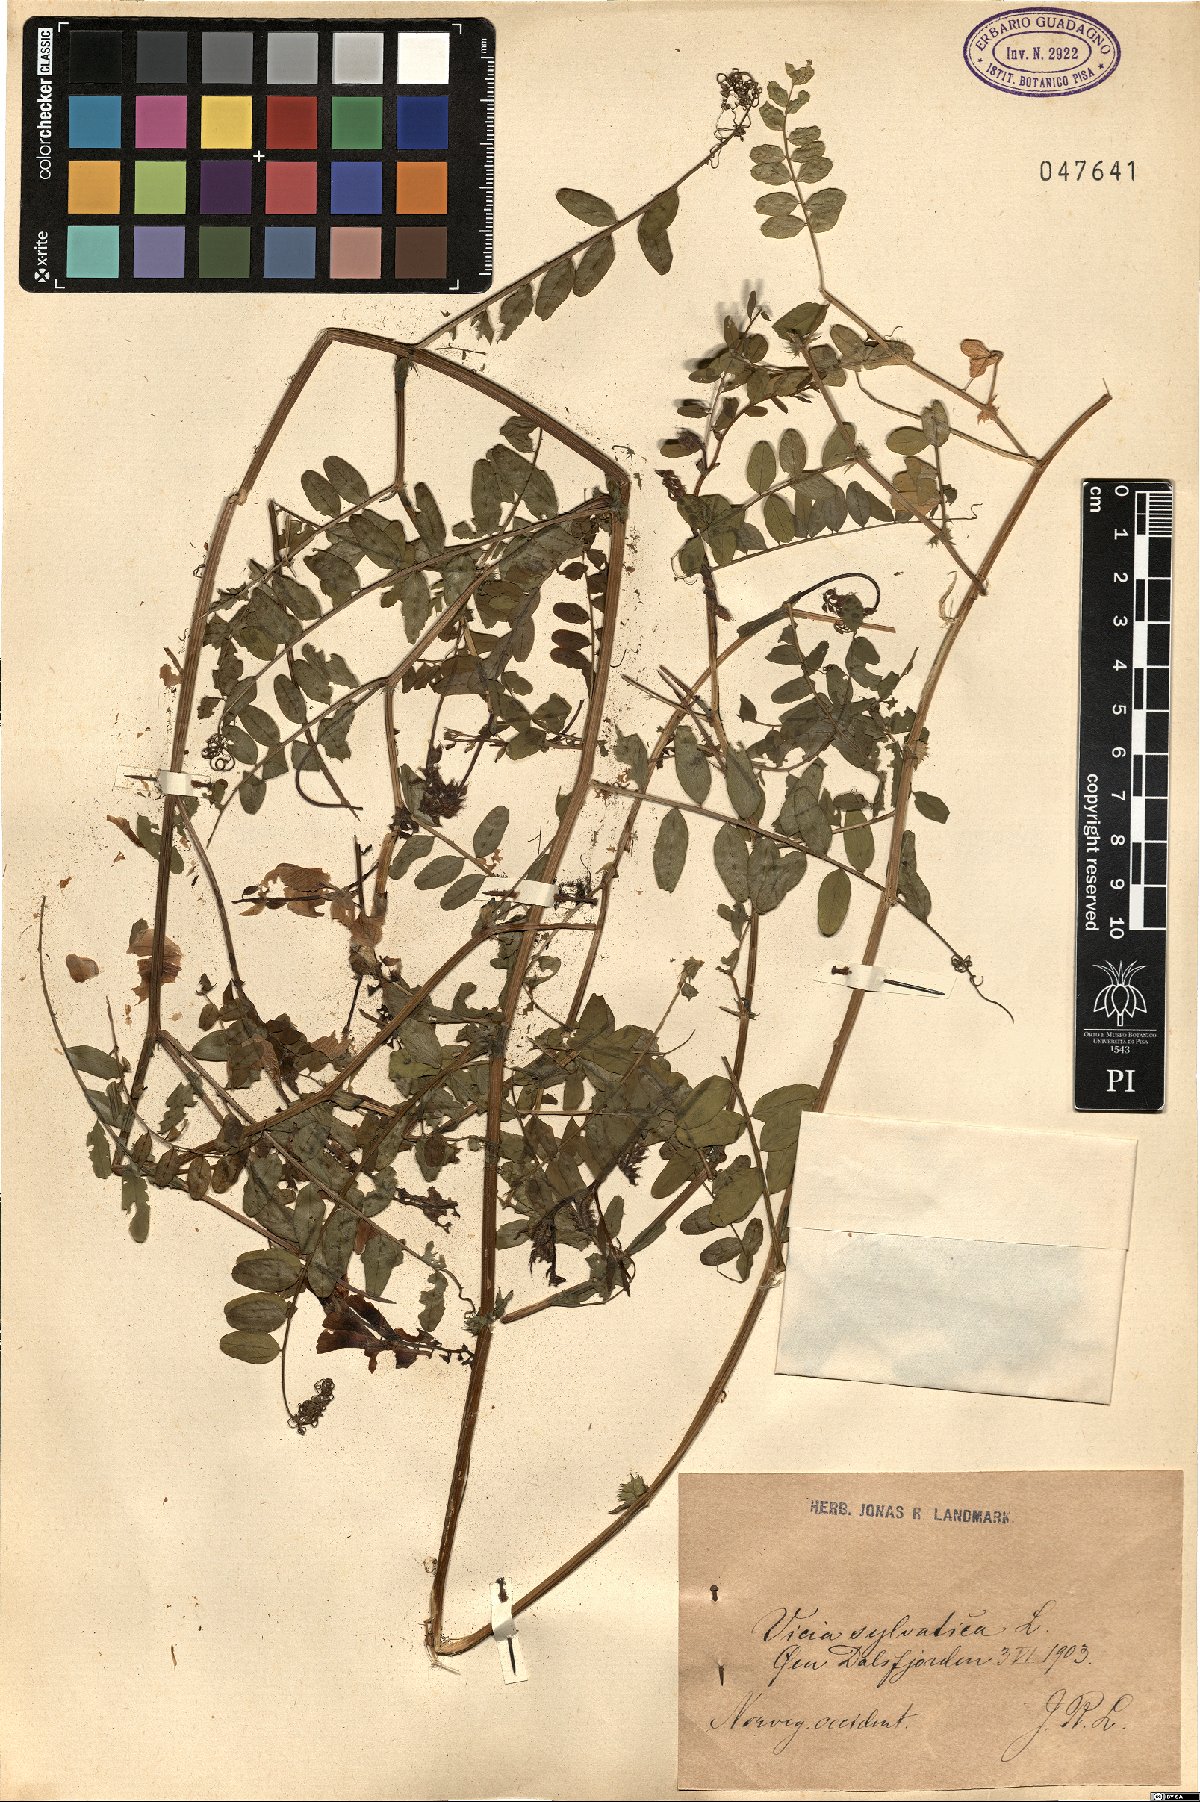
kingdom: Plantae
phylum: Tracheophyta
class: Magnoliopsida
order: Fabales
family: Fabaceae
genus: Vicia
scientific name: Vicia sylvatica
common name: Wood vetch
